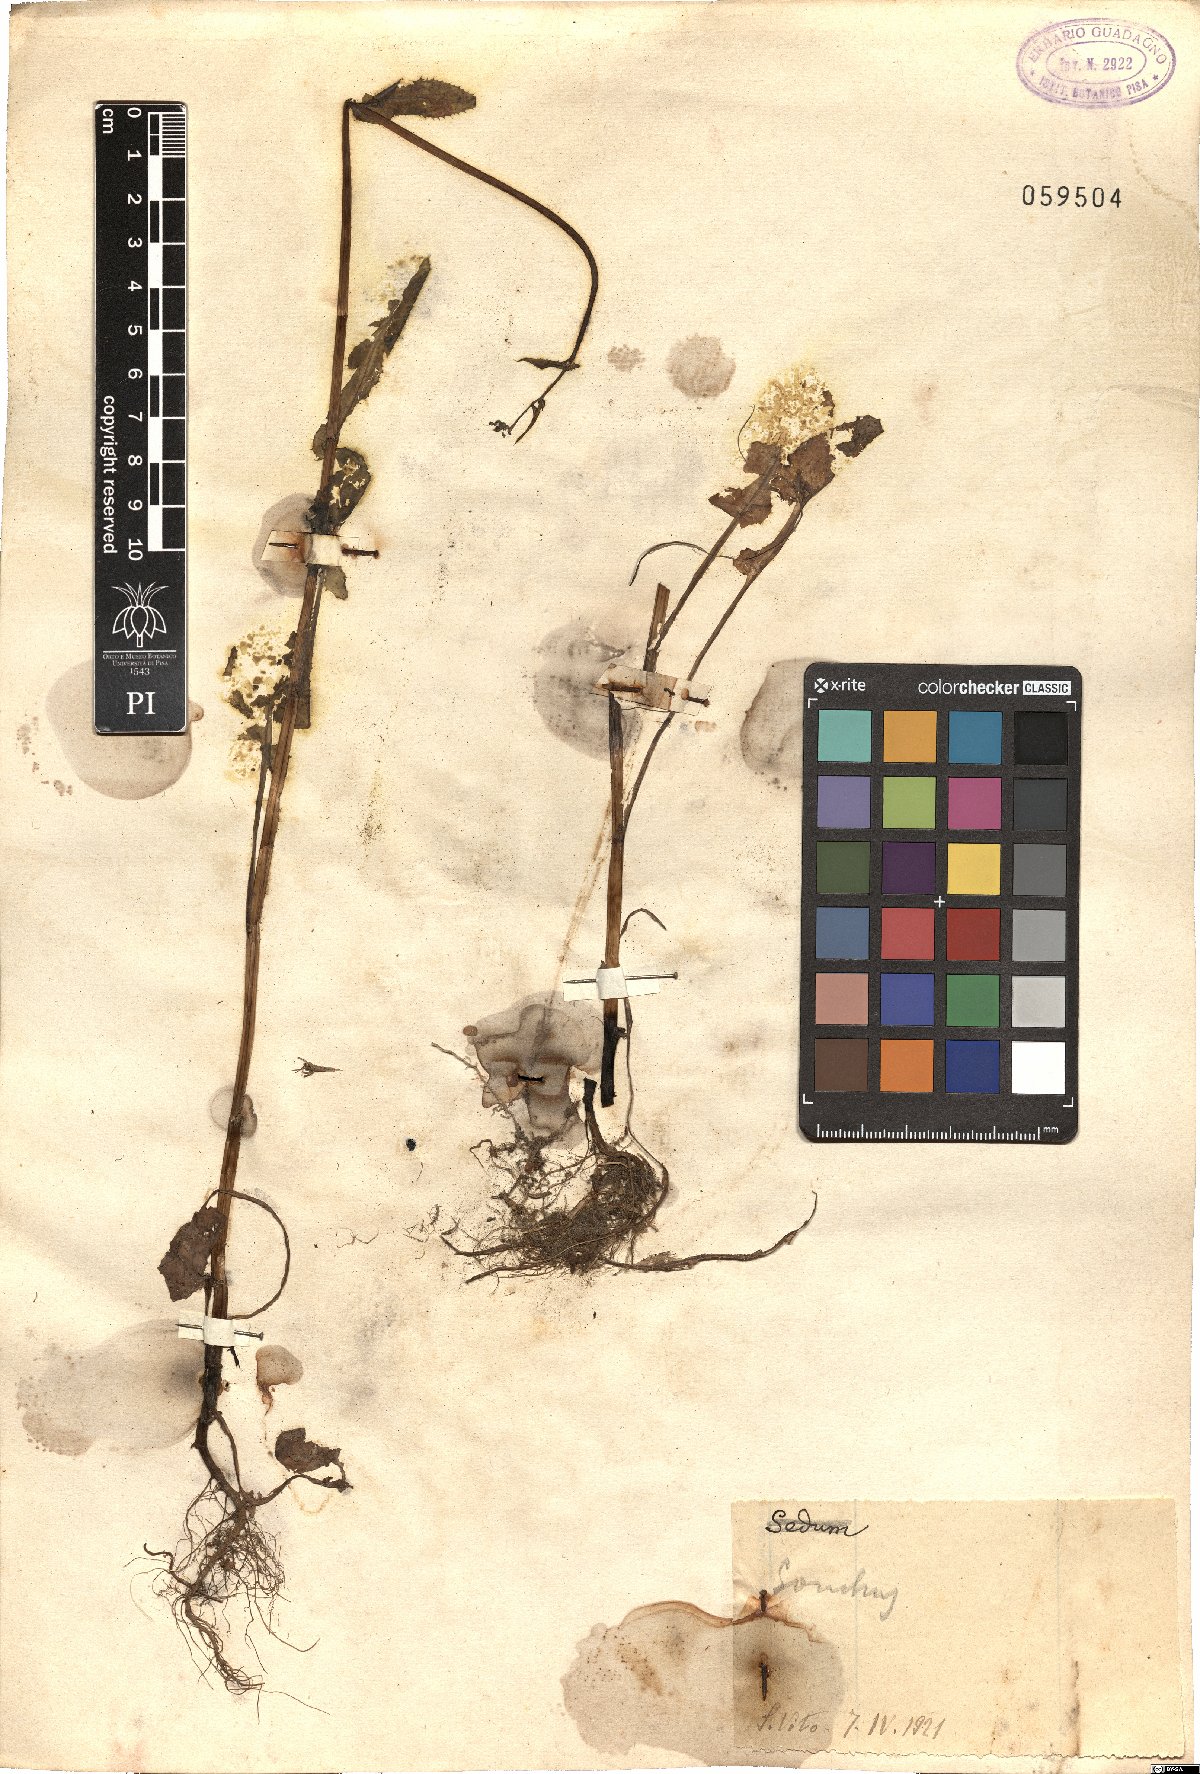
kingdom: Plantae
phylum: Tracheophyta
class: Magnoliopsida
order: Asterales
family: Asteraceae
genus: Sonchus
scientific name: Sonchus
